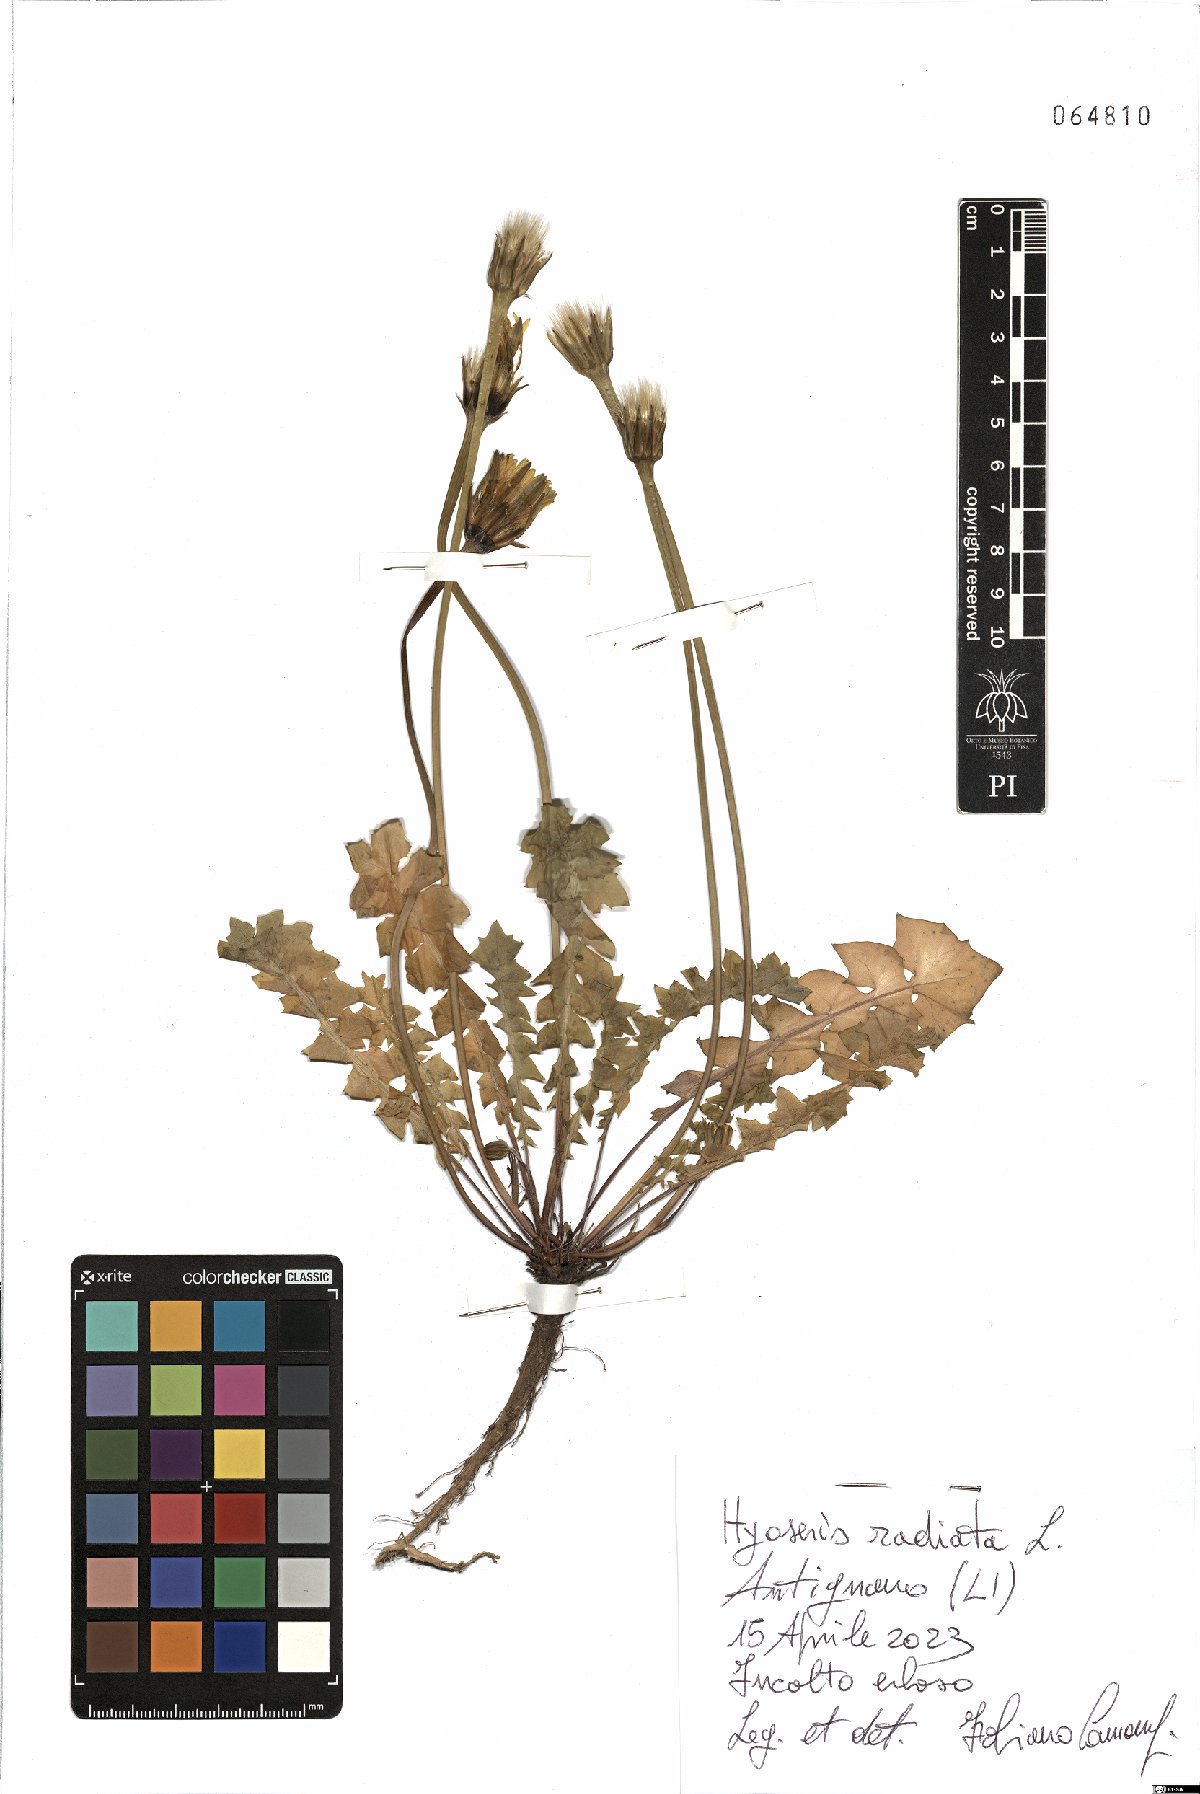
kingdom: Plantae
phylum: Tracheophyta
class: Magnoliopsida
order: Asterales
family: Asteraceae
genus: Hyoseris
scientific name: Hyoseris radiata
